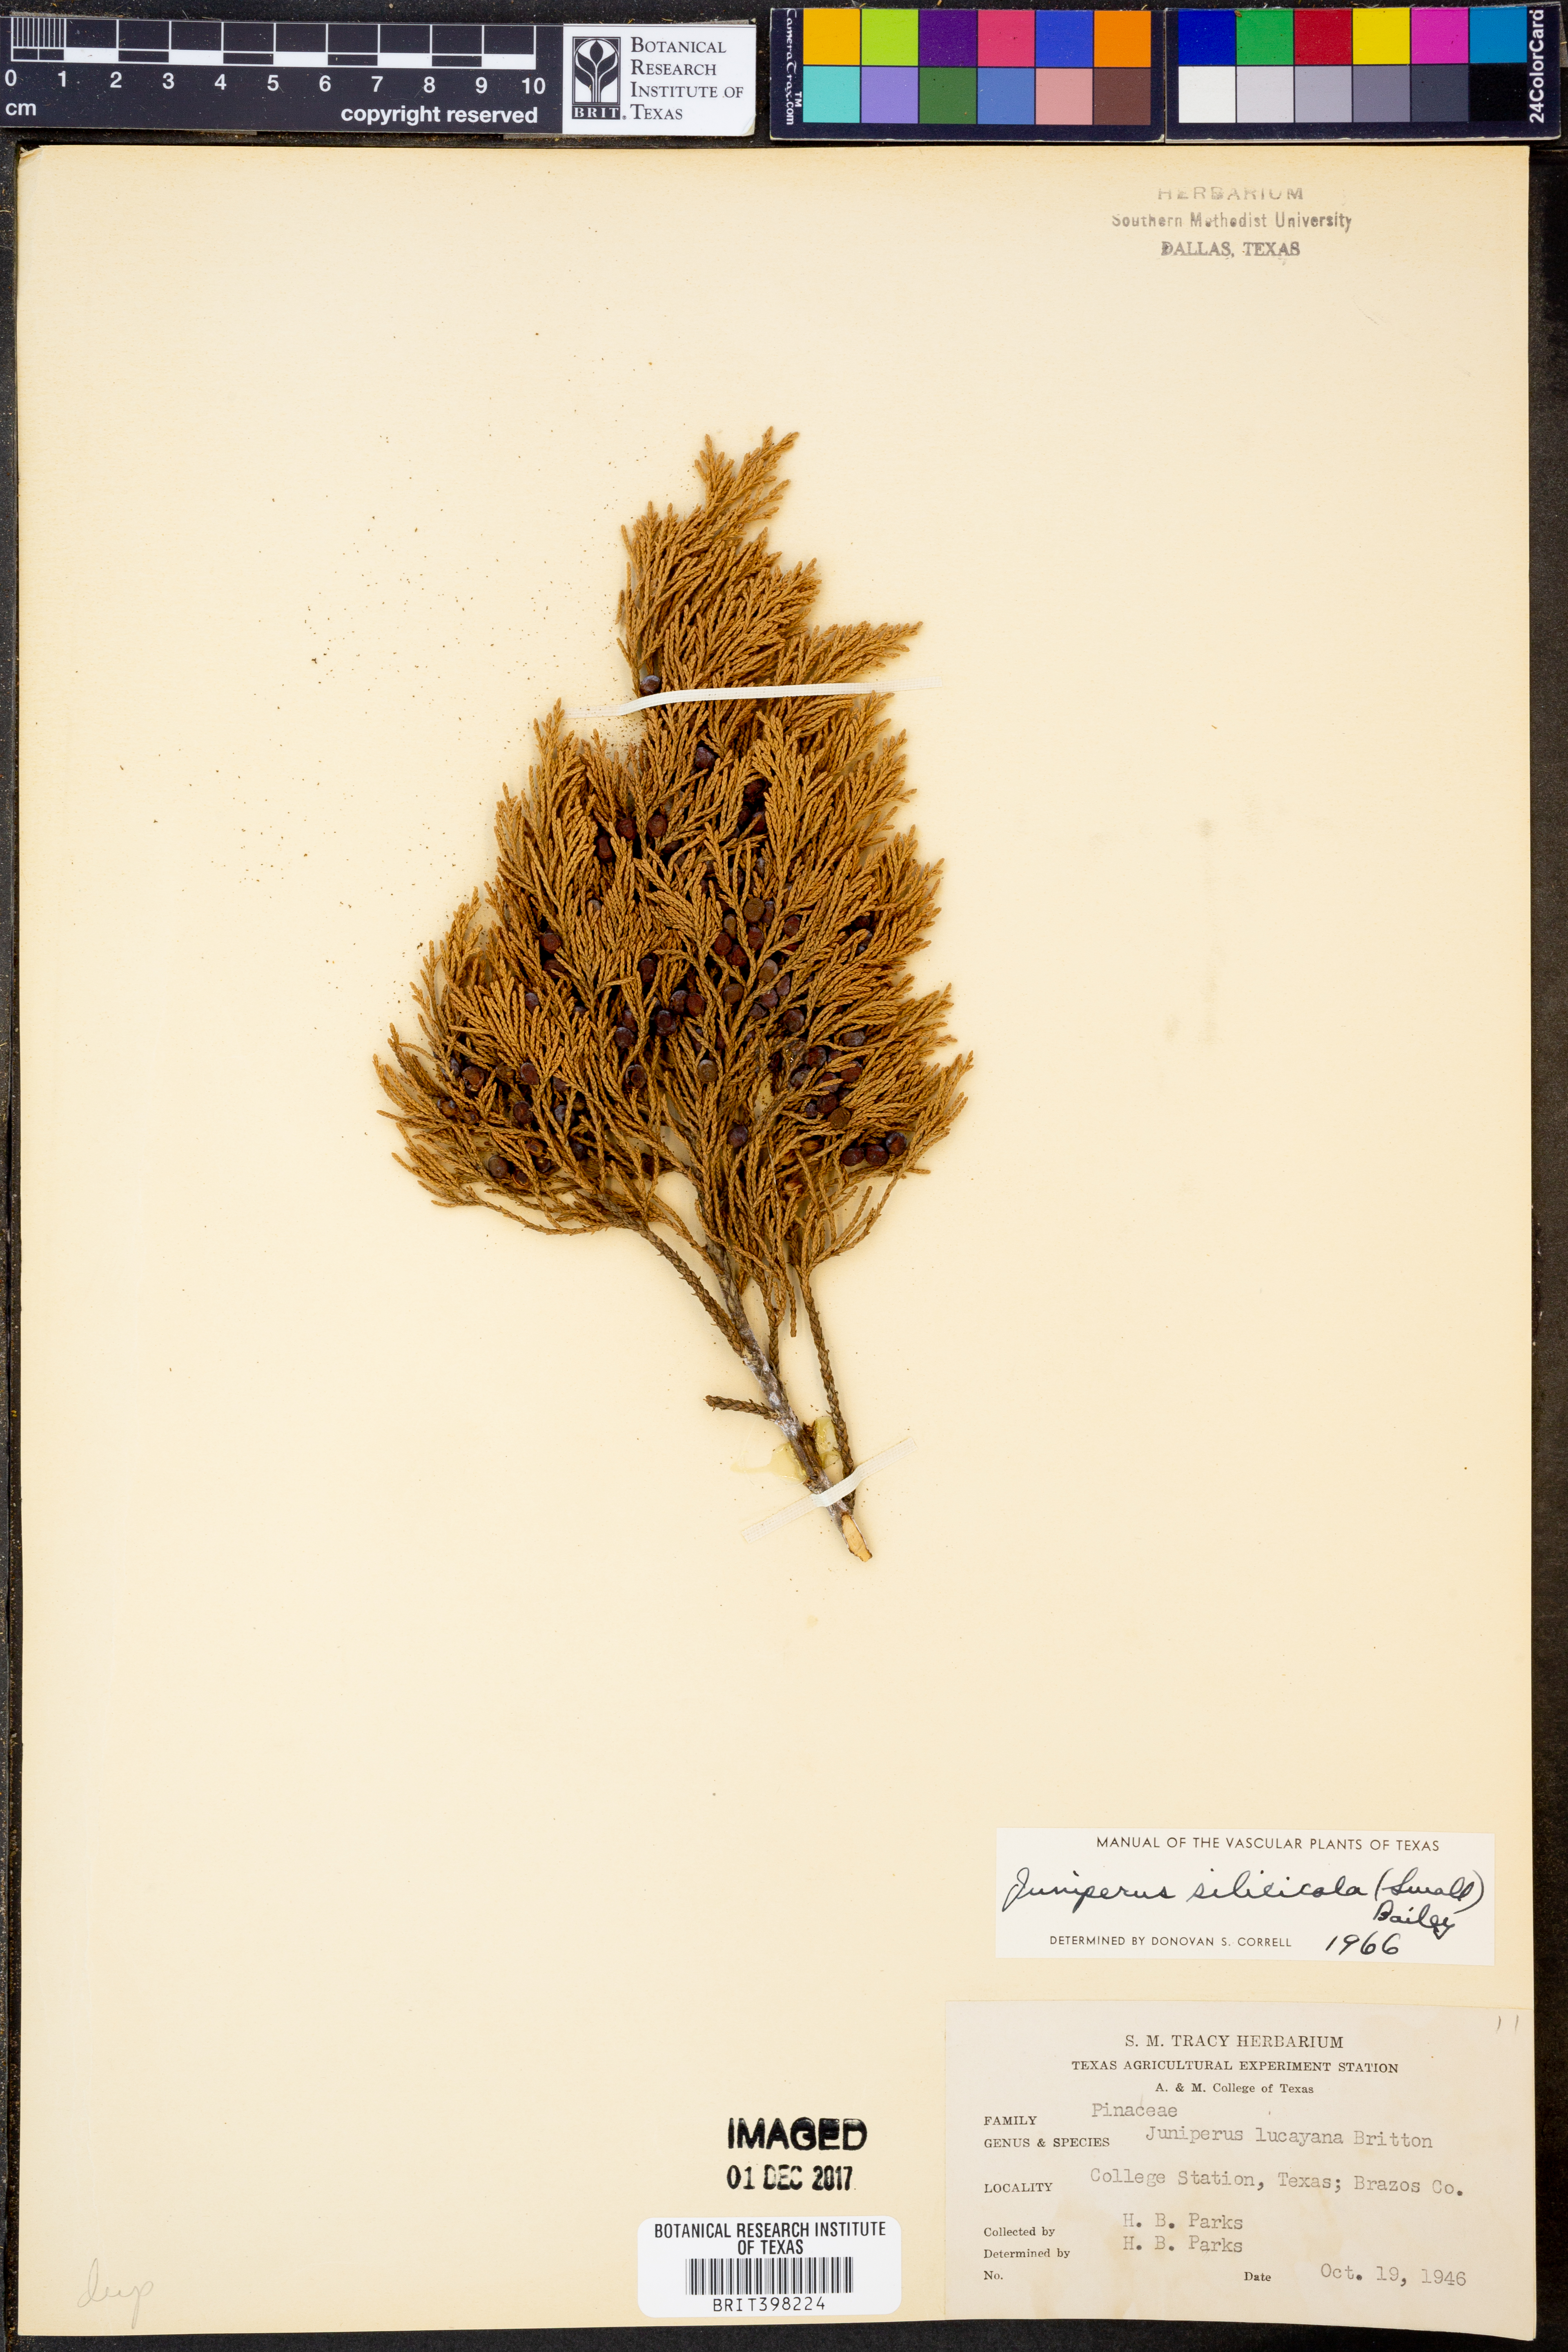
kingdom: Plantae
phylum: Tracheophyta
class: Pinopsida
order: Pinales
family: Cupressaceae
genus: Juniperus
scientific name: Juniperus virginiana
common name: Red juniper
